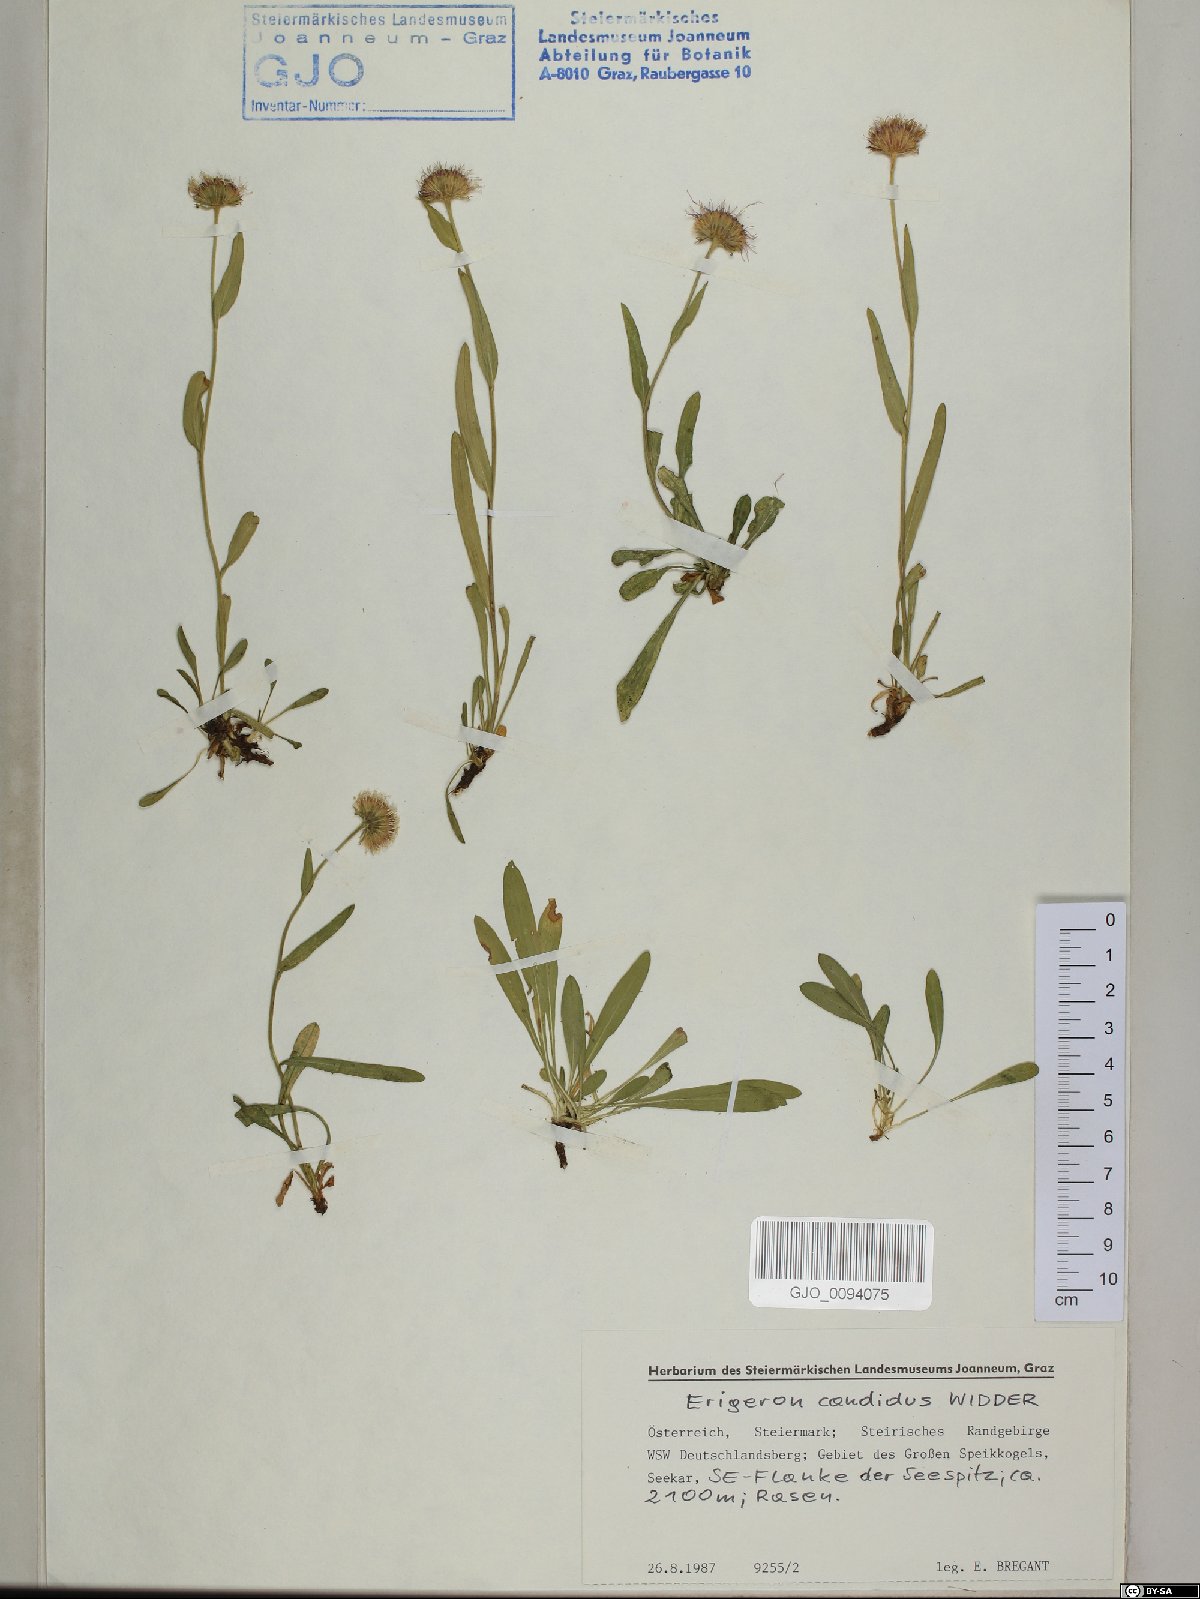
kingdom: Plantae
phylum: Tracheophyta
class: Magnoliopsida
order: Asterales
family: Asteraceae
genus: Erigeron
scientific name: Erigeron glabratus
